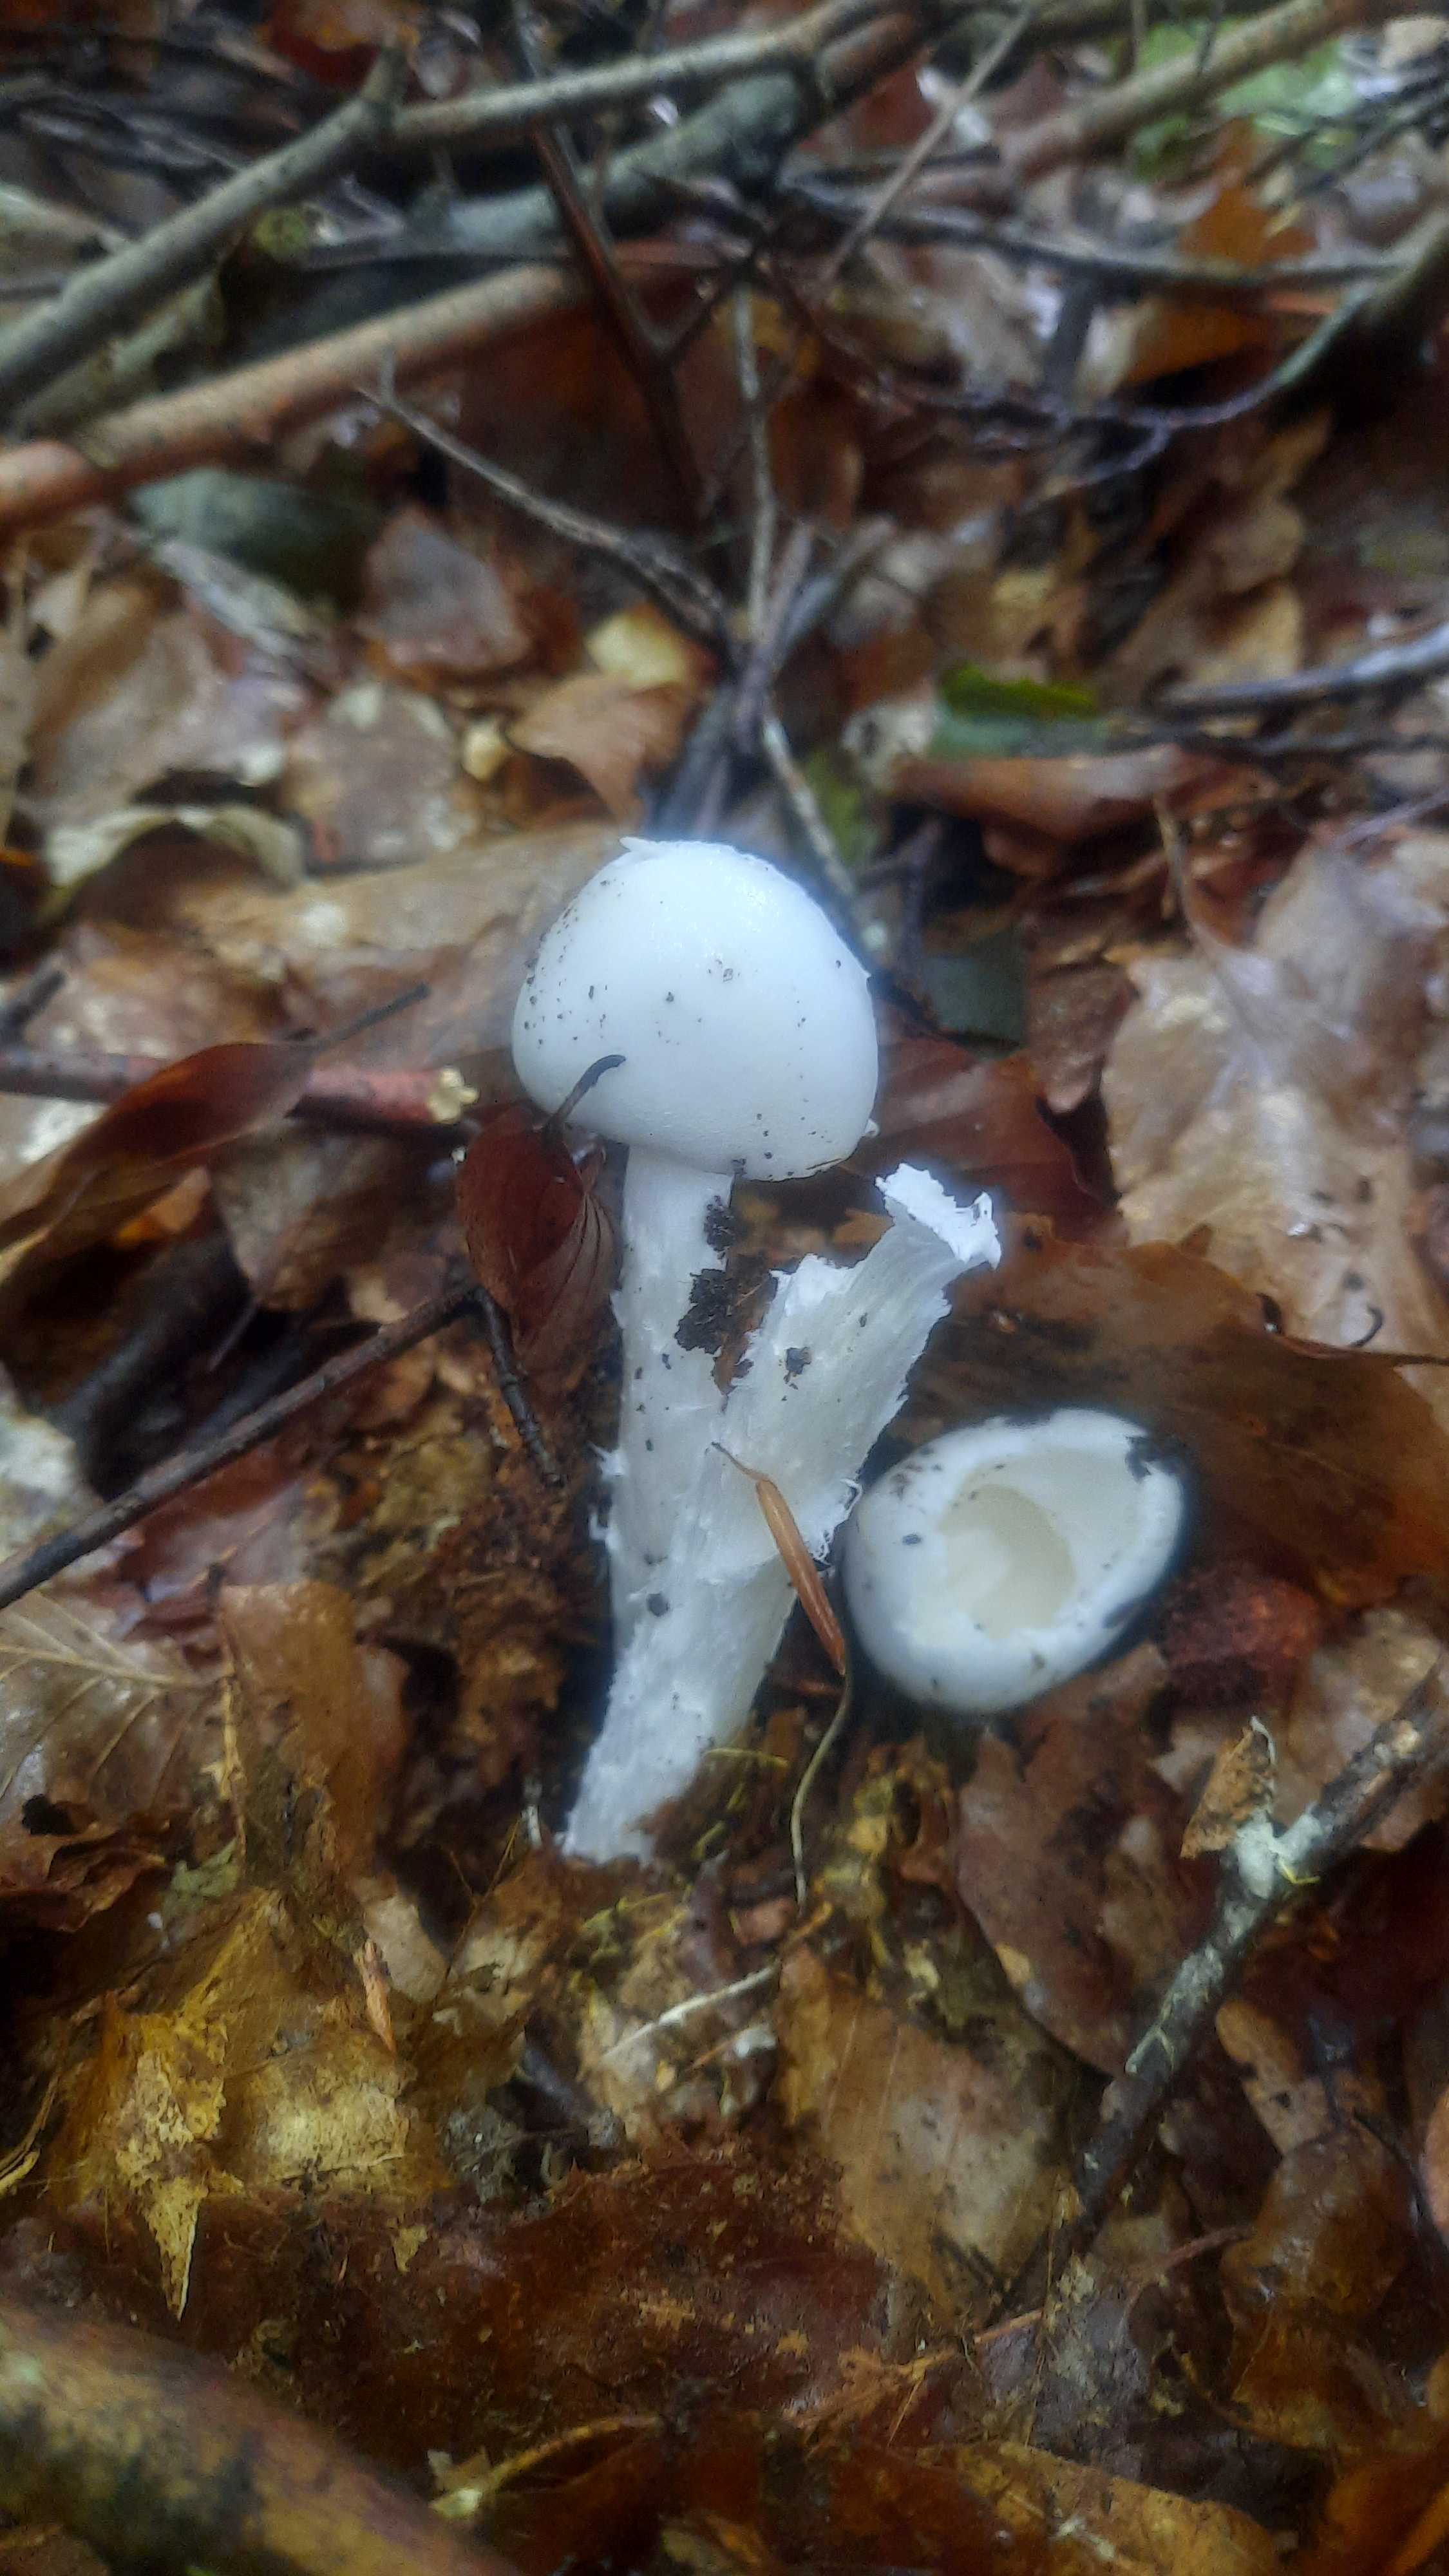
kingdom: Fungi
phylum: Basidiomycota
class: Agaricomycetes
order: Agaricales
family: Amanitaceae
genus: Amanita
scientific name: Amanita virosa
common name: snehvid fluesvamp
